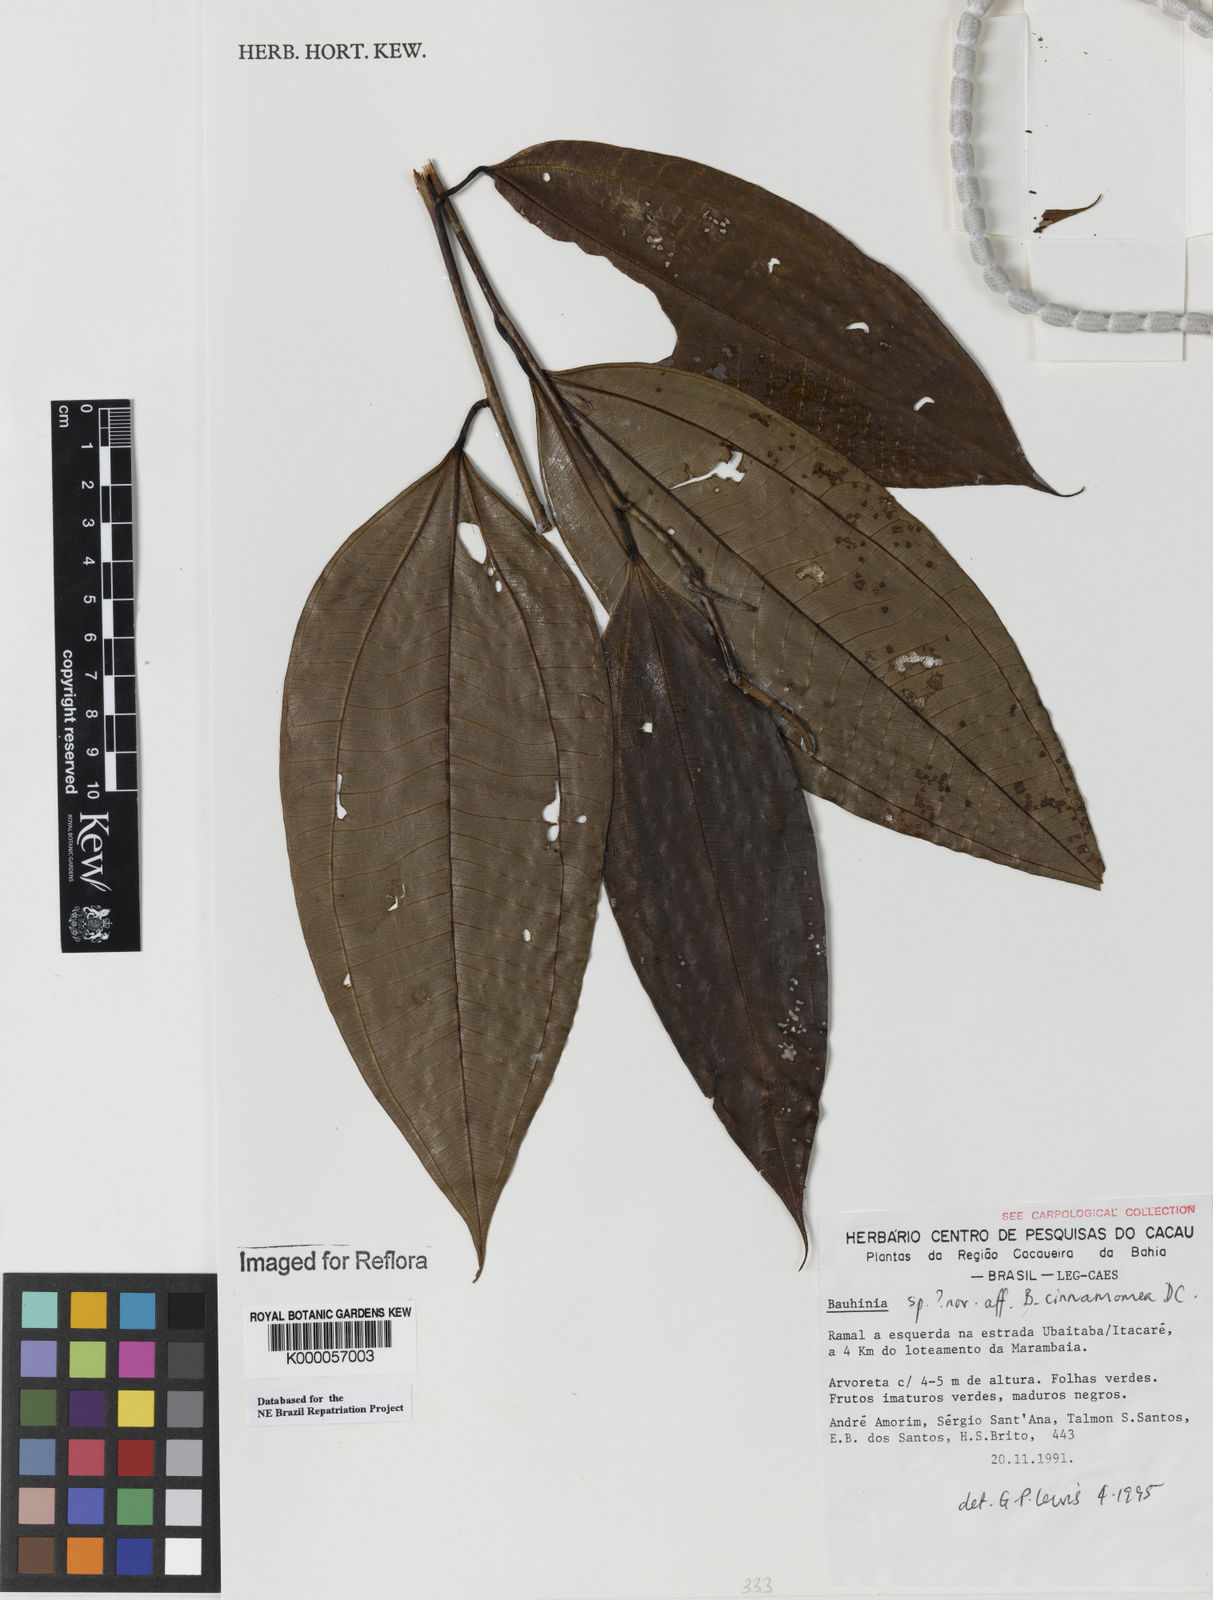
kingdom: Plantae
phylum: Tracheophyta
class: Magnoliopsida
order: Fabales
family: Fabaceae
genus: Bauhinia
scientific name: Bauhinia
